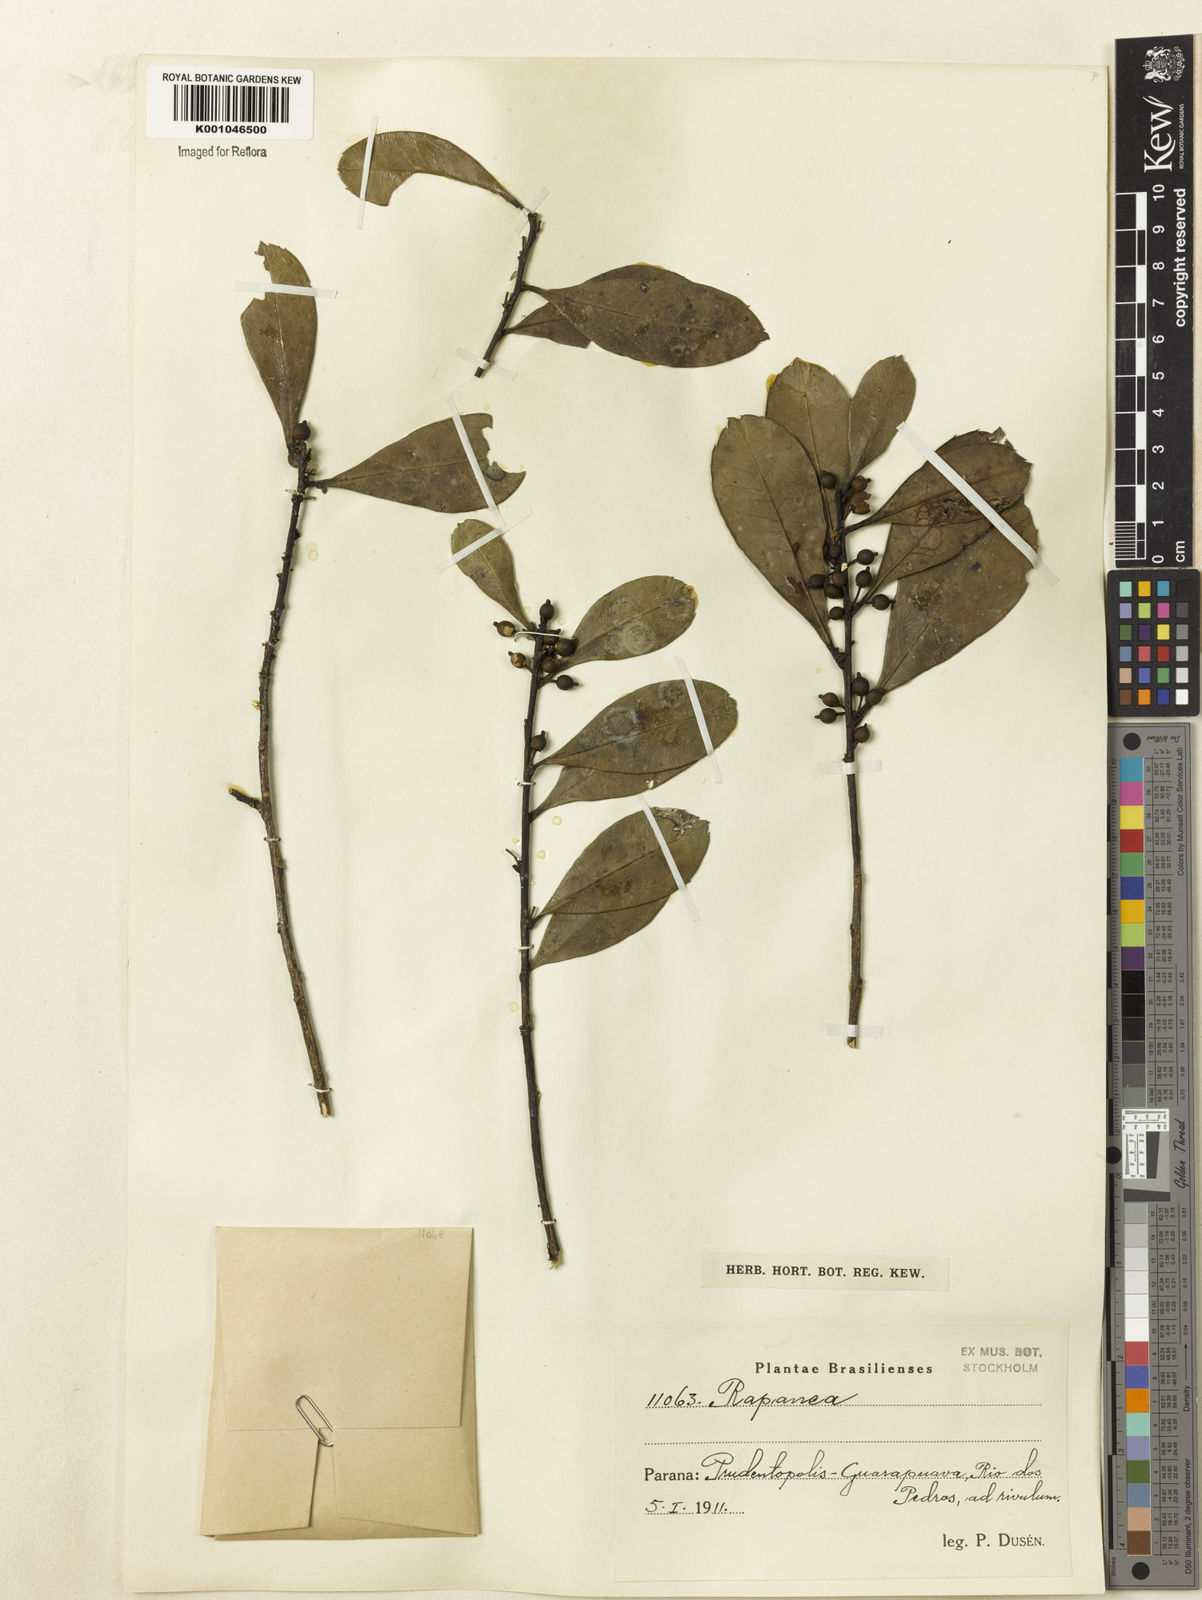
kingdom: Plantae
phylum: Tracheophyta
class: Magnoliopsida
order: Aquifoliales
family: Aquifoliaceae
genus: Ilex
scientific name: Ilex paraguariensis
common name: Paraguay tea
